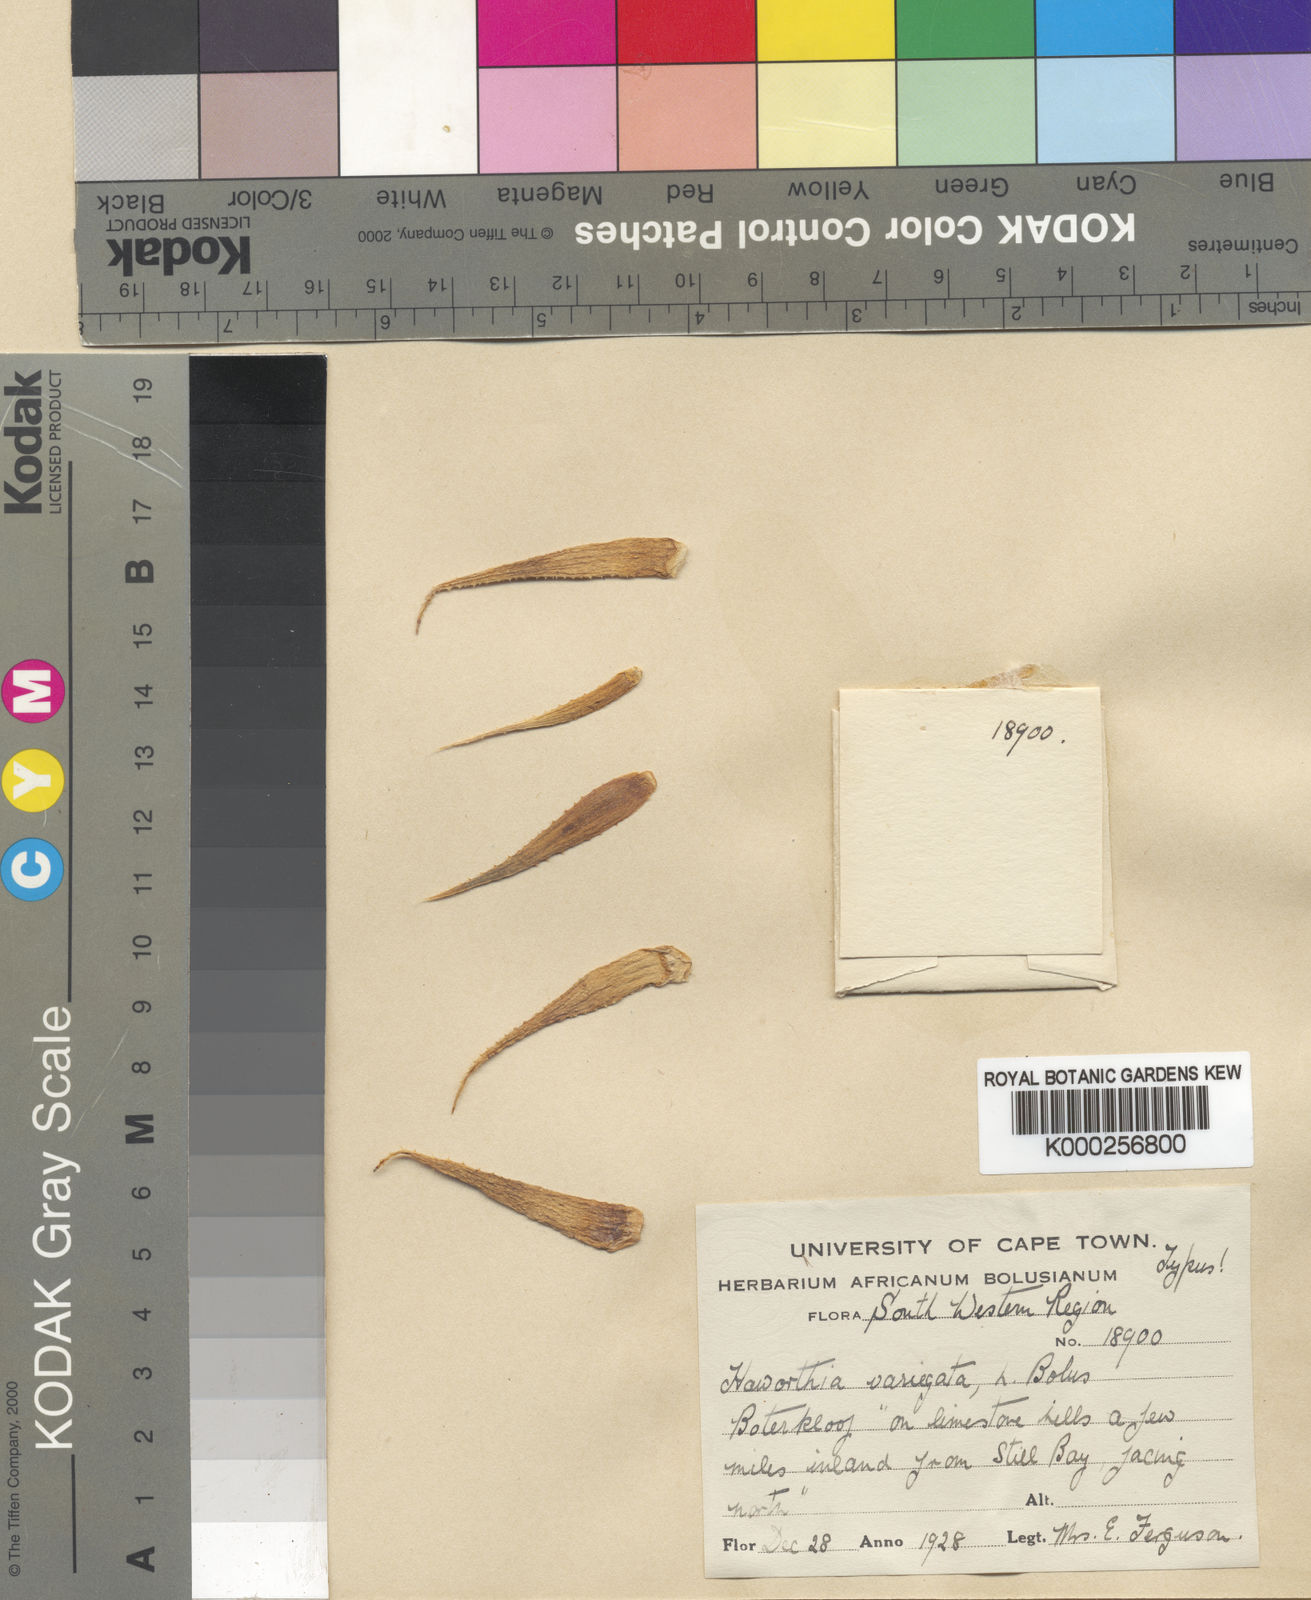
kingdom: Plantae
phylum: Tracheophyta
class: Liliopsida
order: Asparagales
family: Asphodelaceae
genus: Haworthia
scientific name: Haworthia variegata
